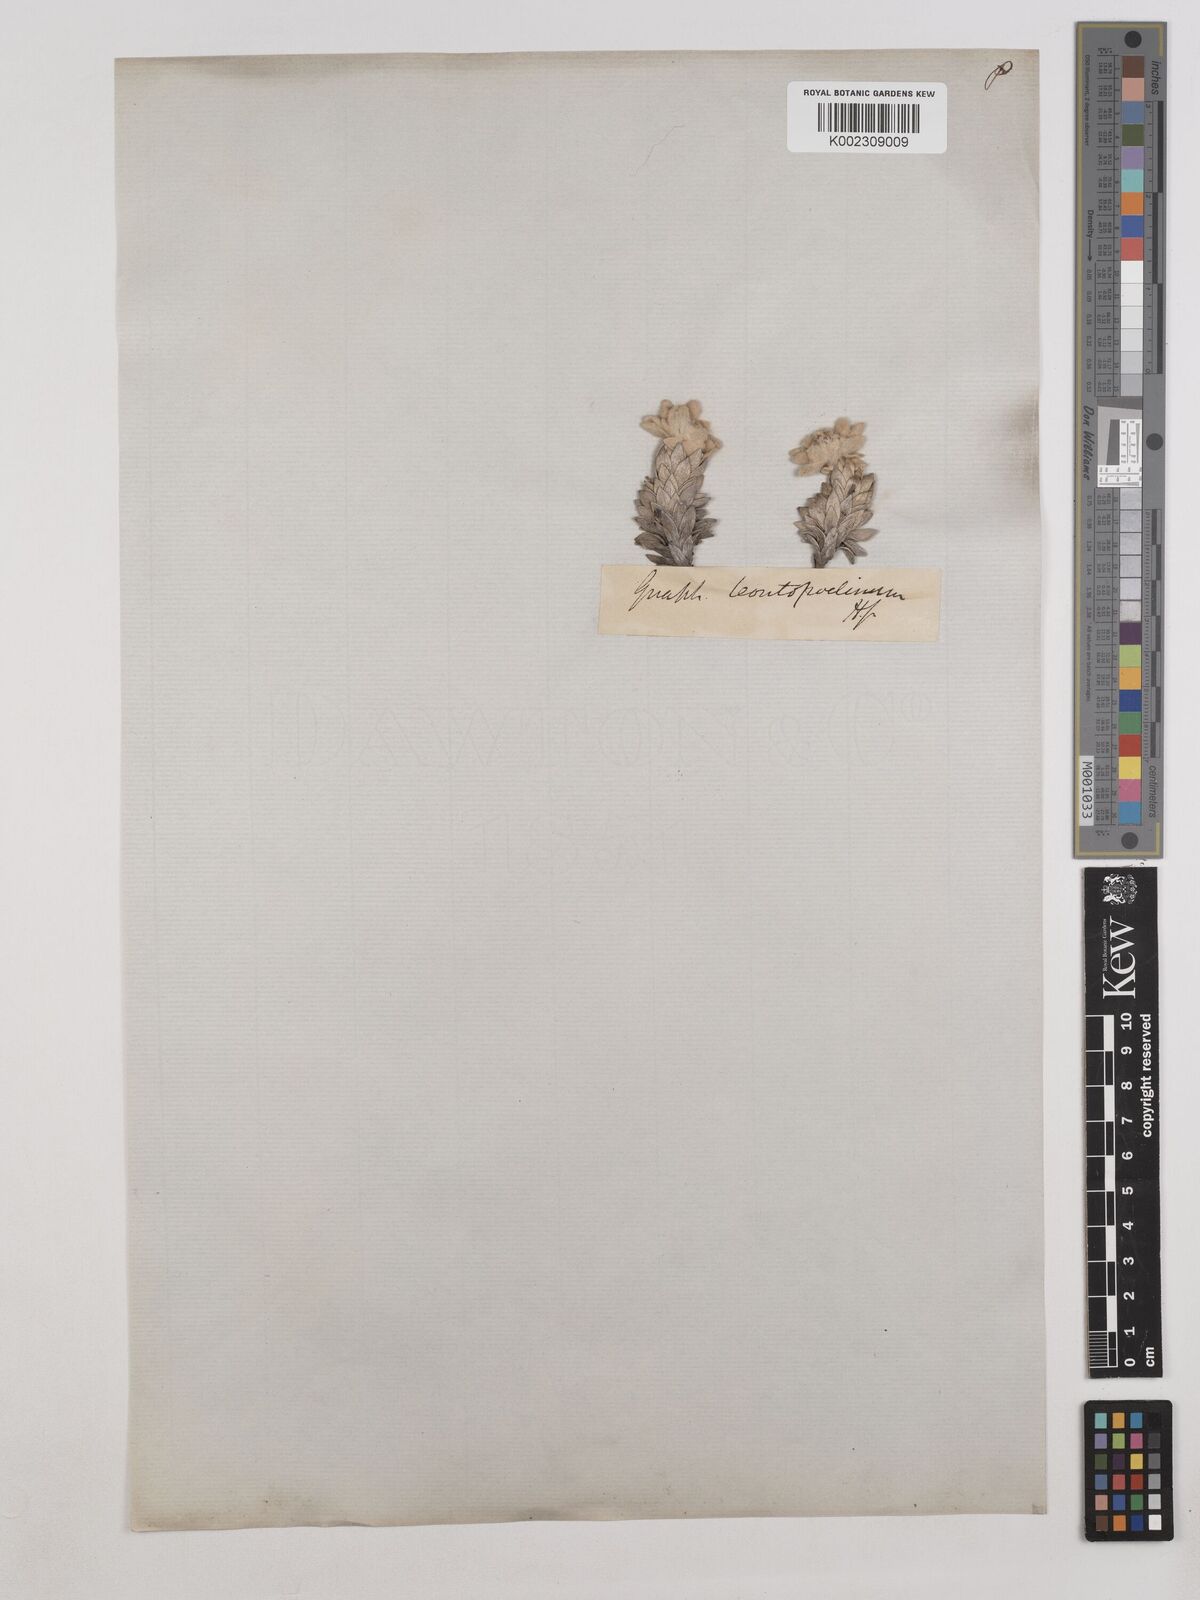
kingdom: Plantae
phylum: Tracheophyta
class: Magnoliopsida
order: Asterales
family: Asteraceae
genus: Leucogenes
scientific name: Leucogenes leontopodium
